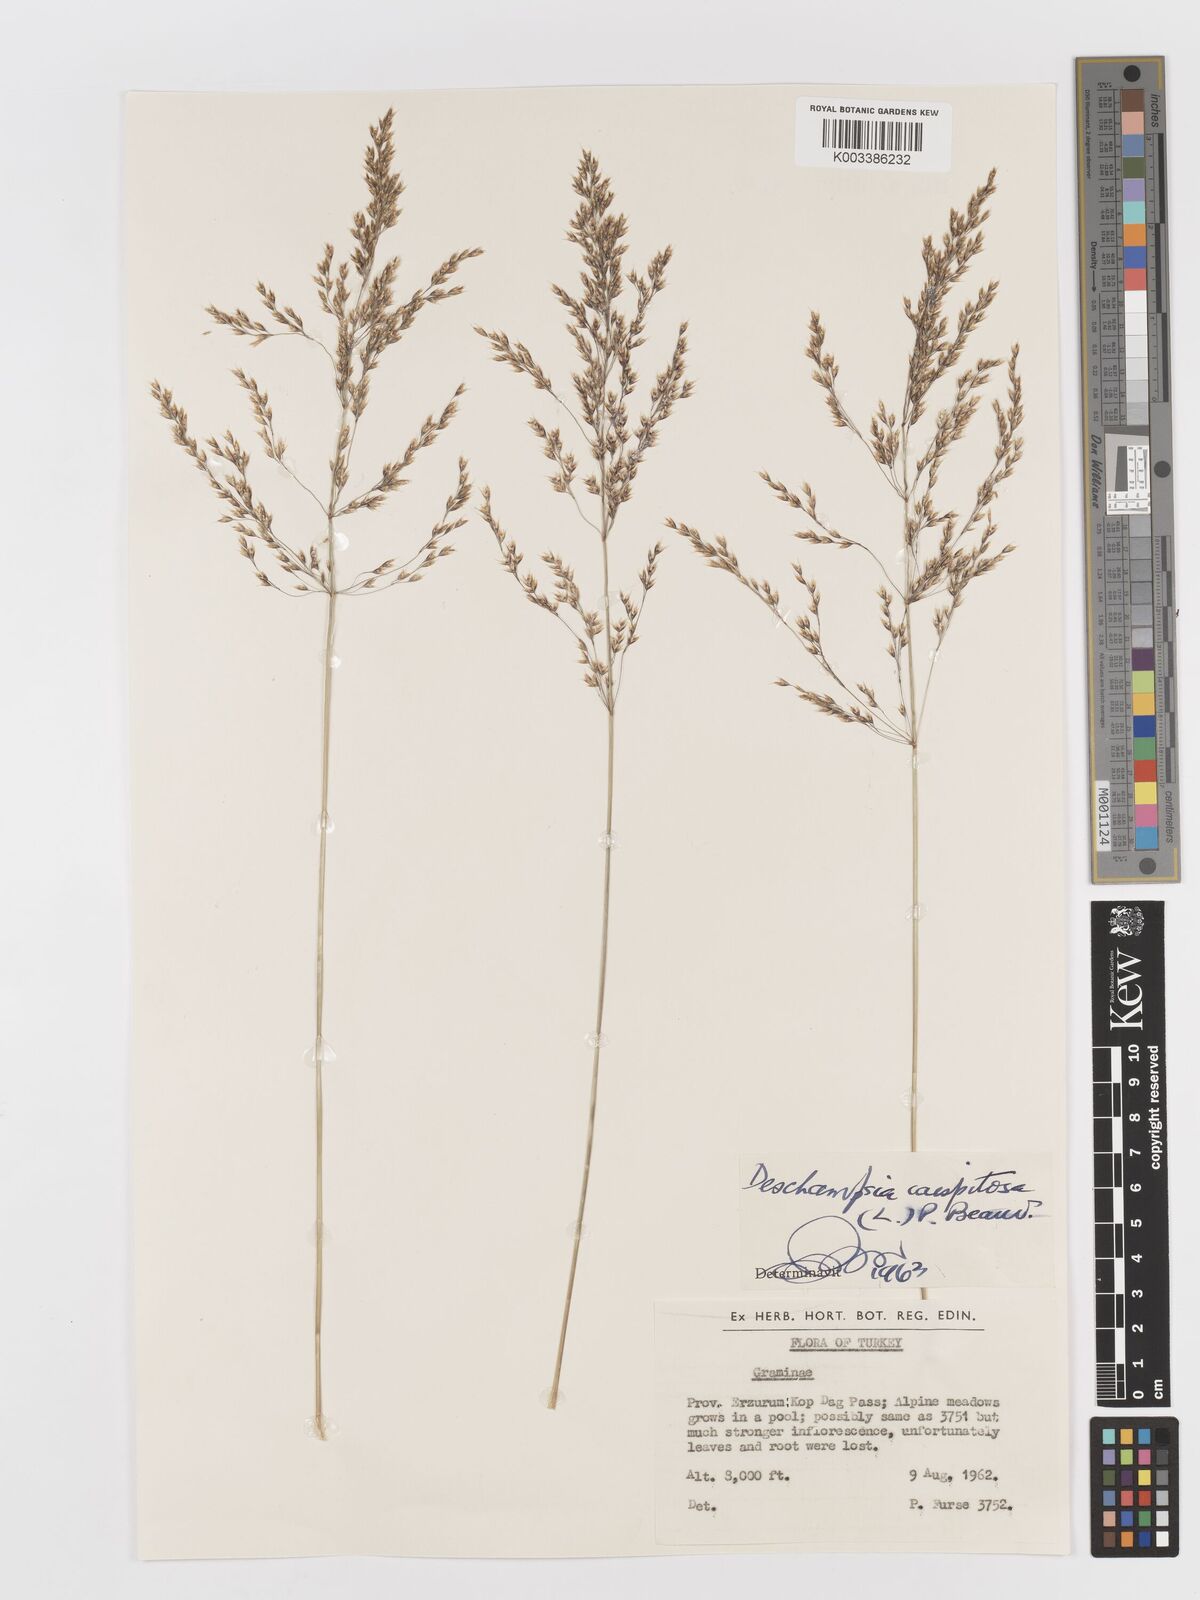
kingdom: Plantae
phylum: Tracheophyta
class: Liliopsida
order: Poales
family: Poaceae
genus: Deschampsia
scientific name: Deschampsia cespitosa
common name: Tufted hair-grass
